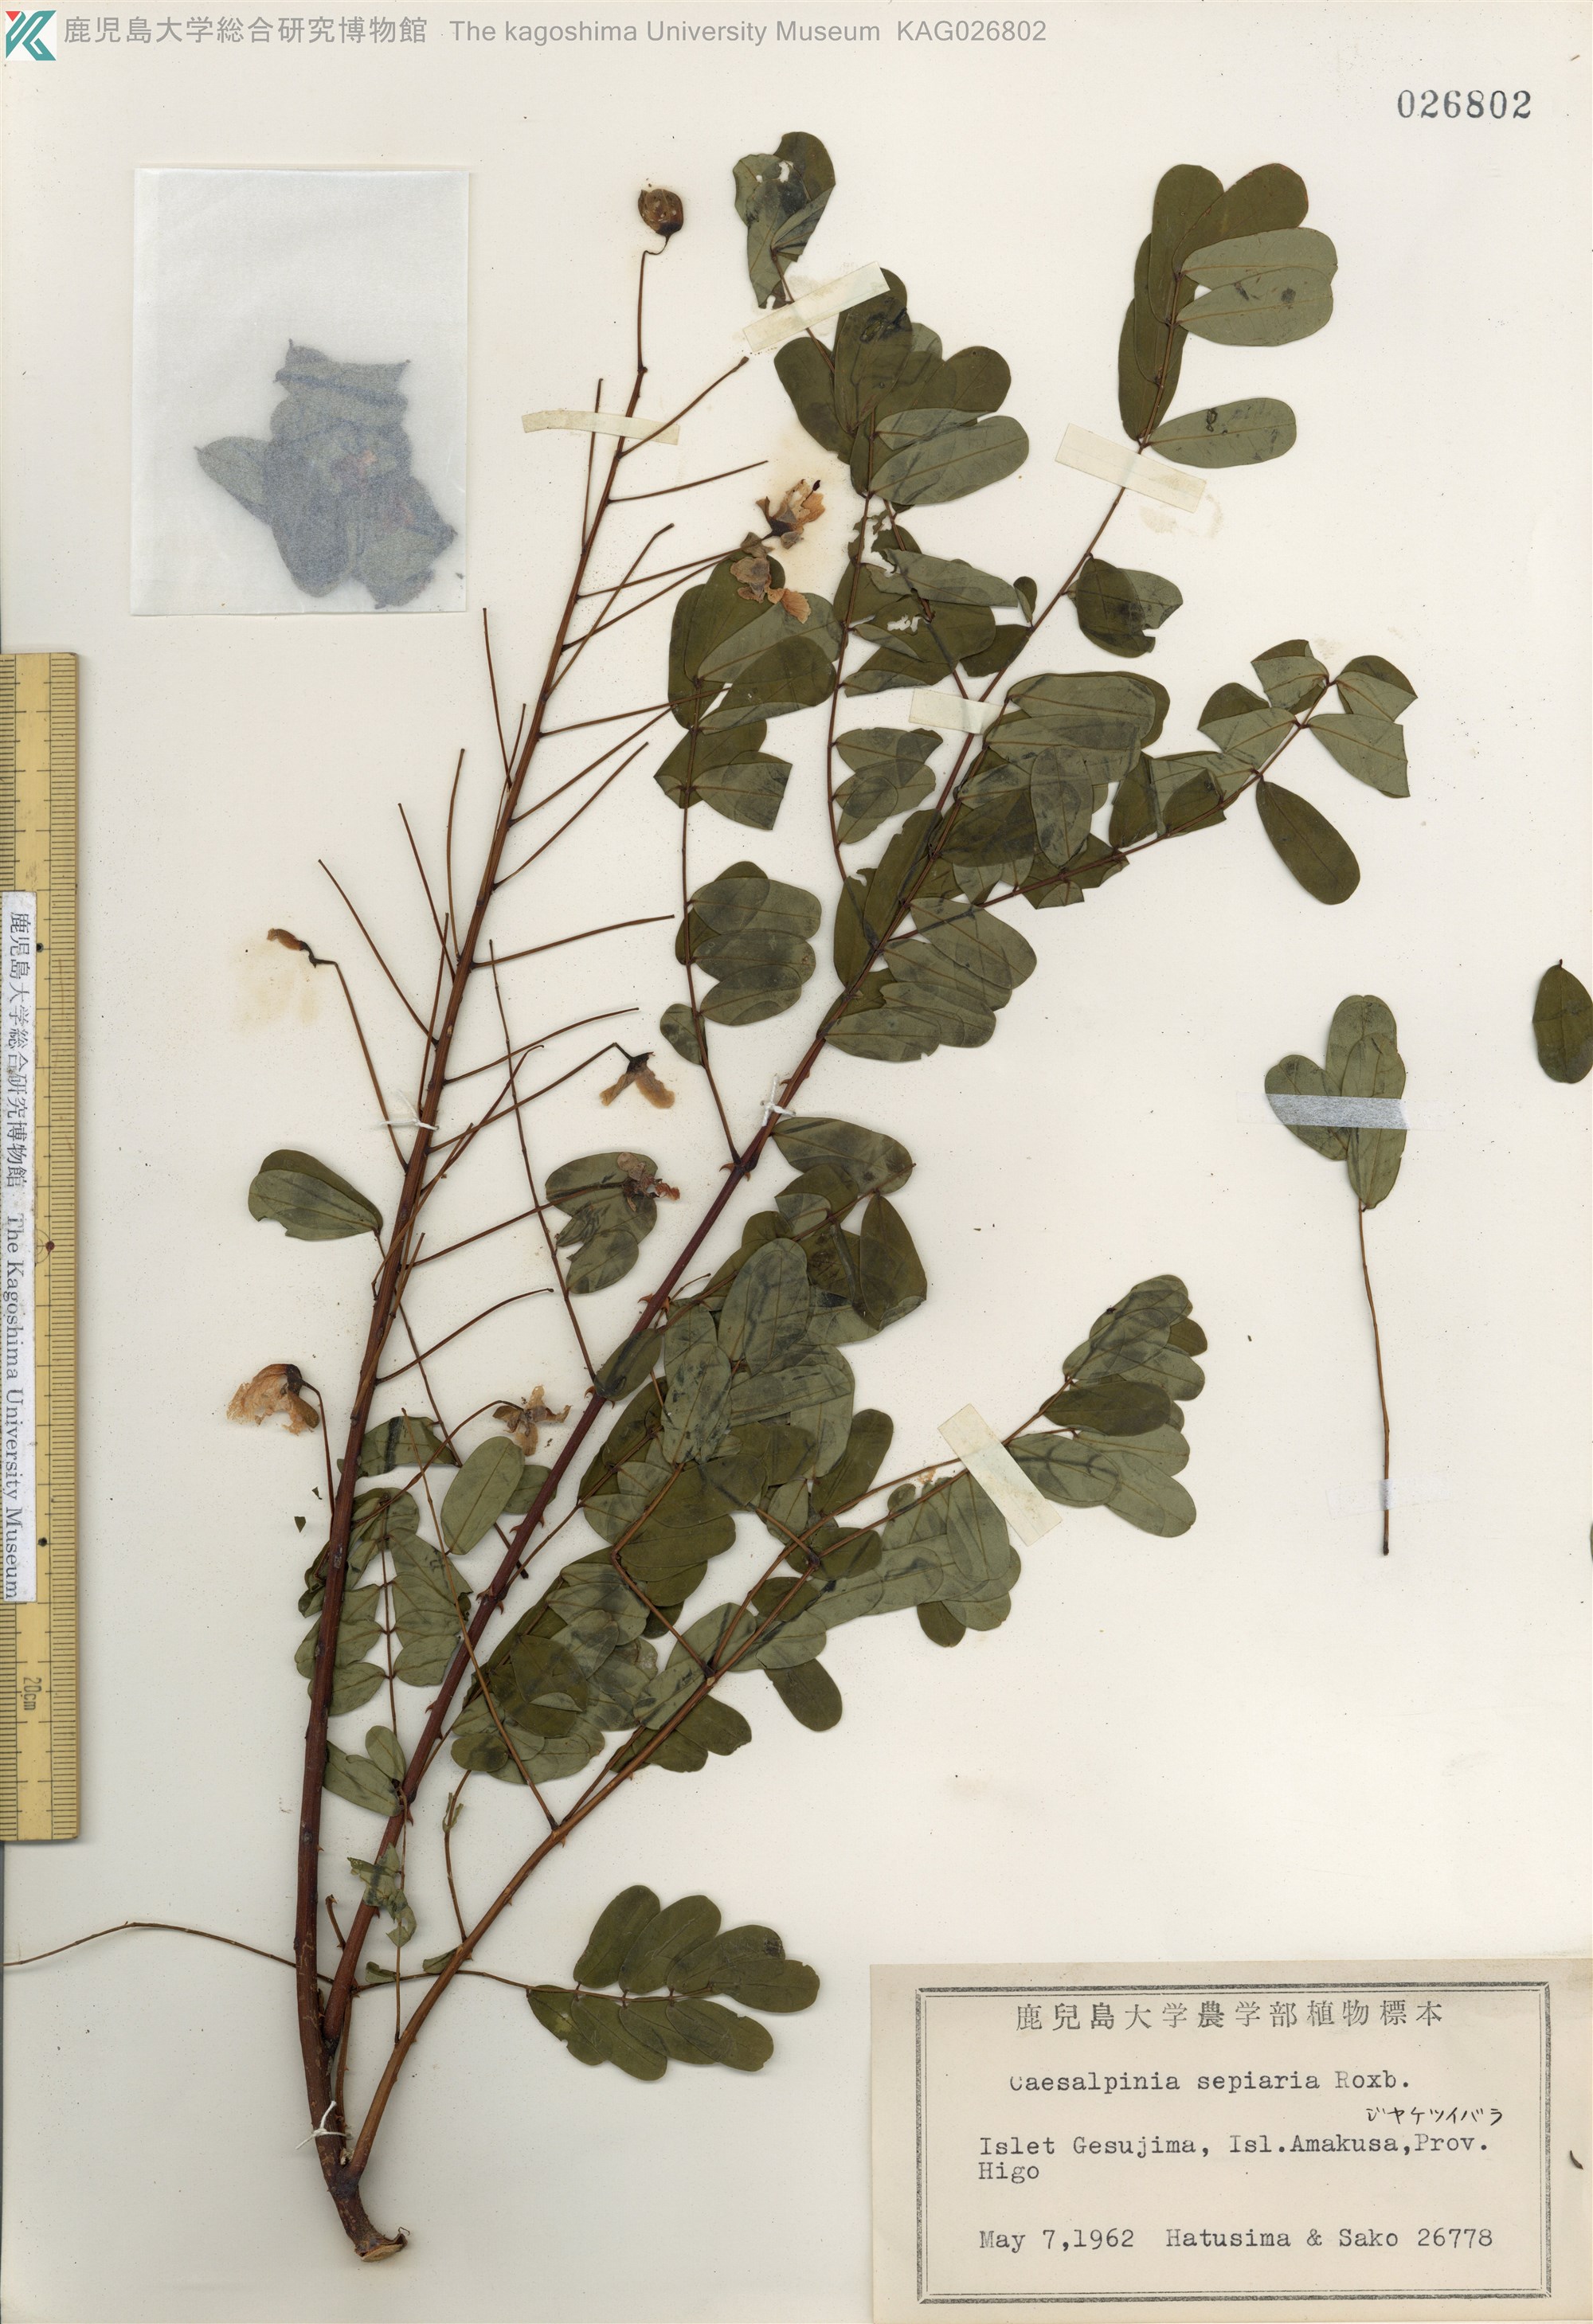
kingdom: Plantae
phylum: Tracheophyta
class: Magnoliopsida
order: Fabales
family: Fabaceae
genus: Biancaea
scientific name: Biancaea decapetala
